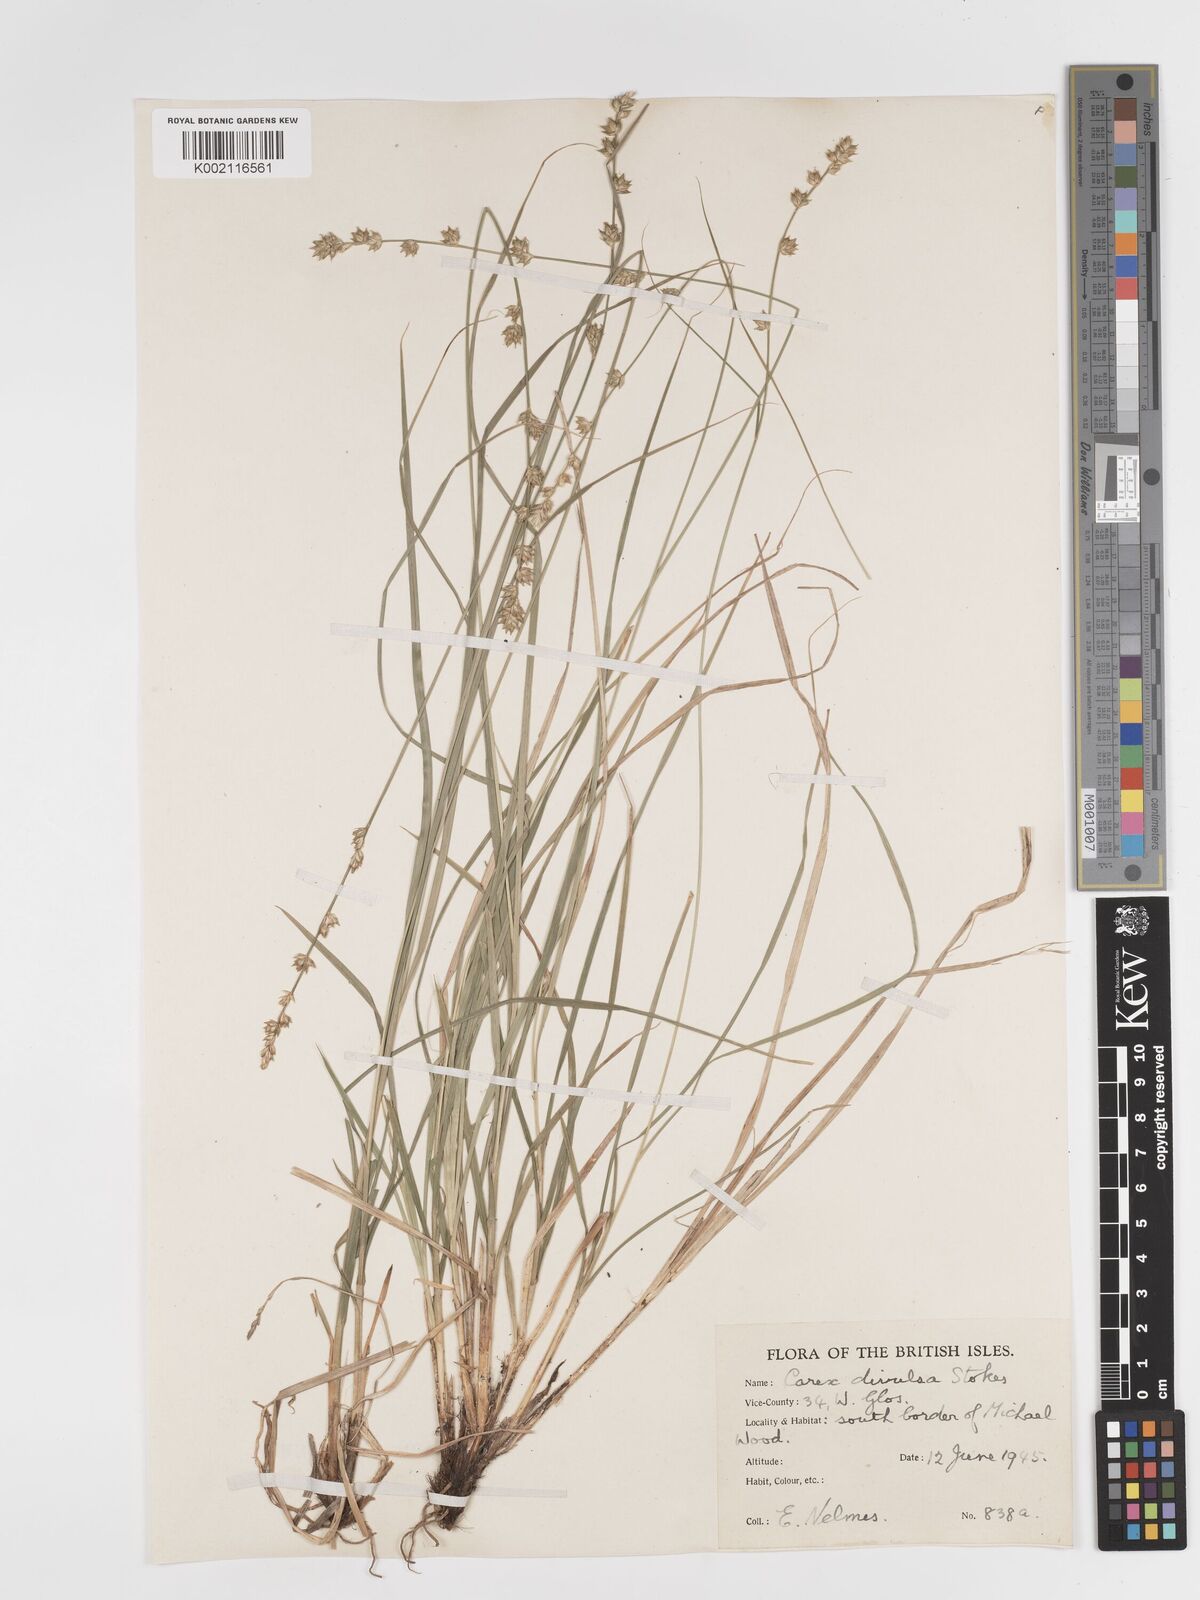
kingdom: Plantae
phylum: Tracheophyta
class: Liliopsida
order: Poales
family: Cyperaceae
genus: Carex
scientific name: Carex divulsa
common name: Grassland sedge
